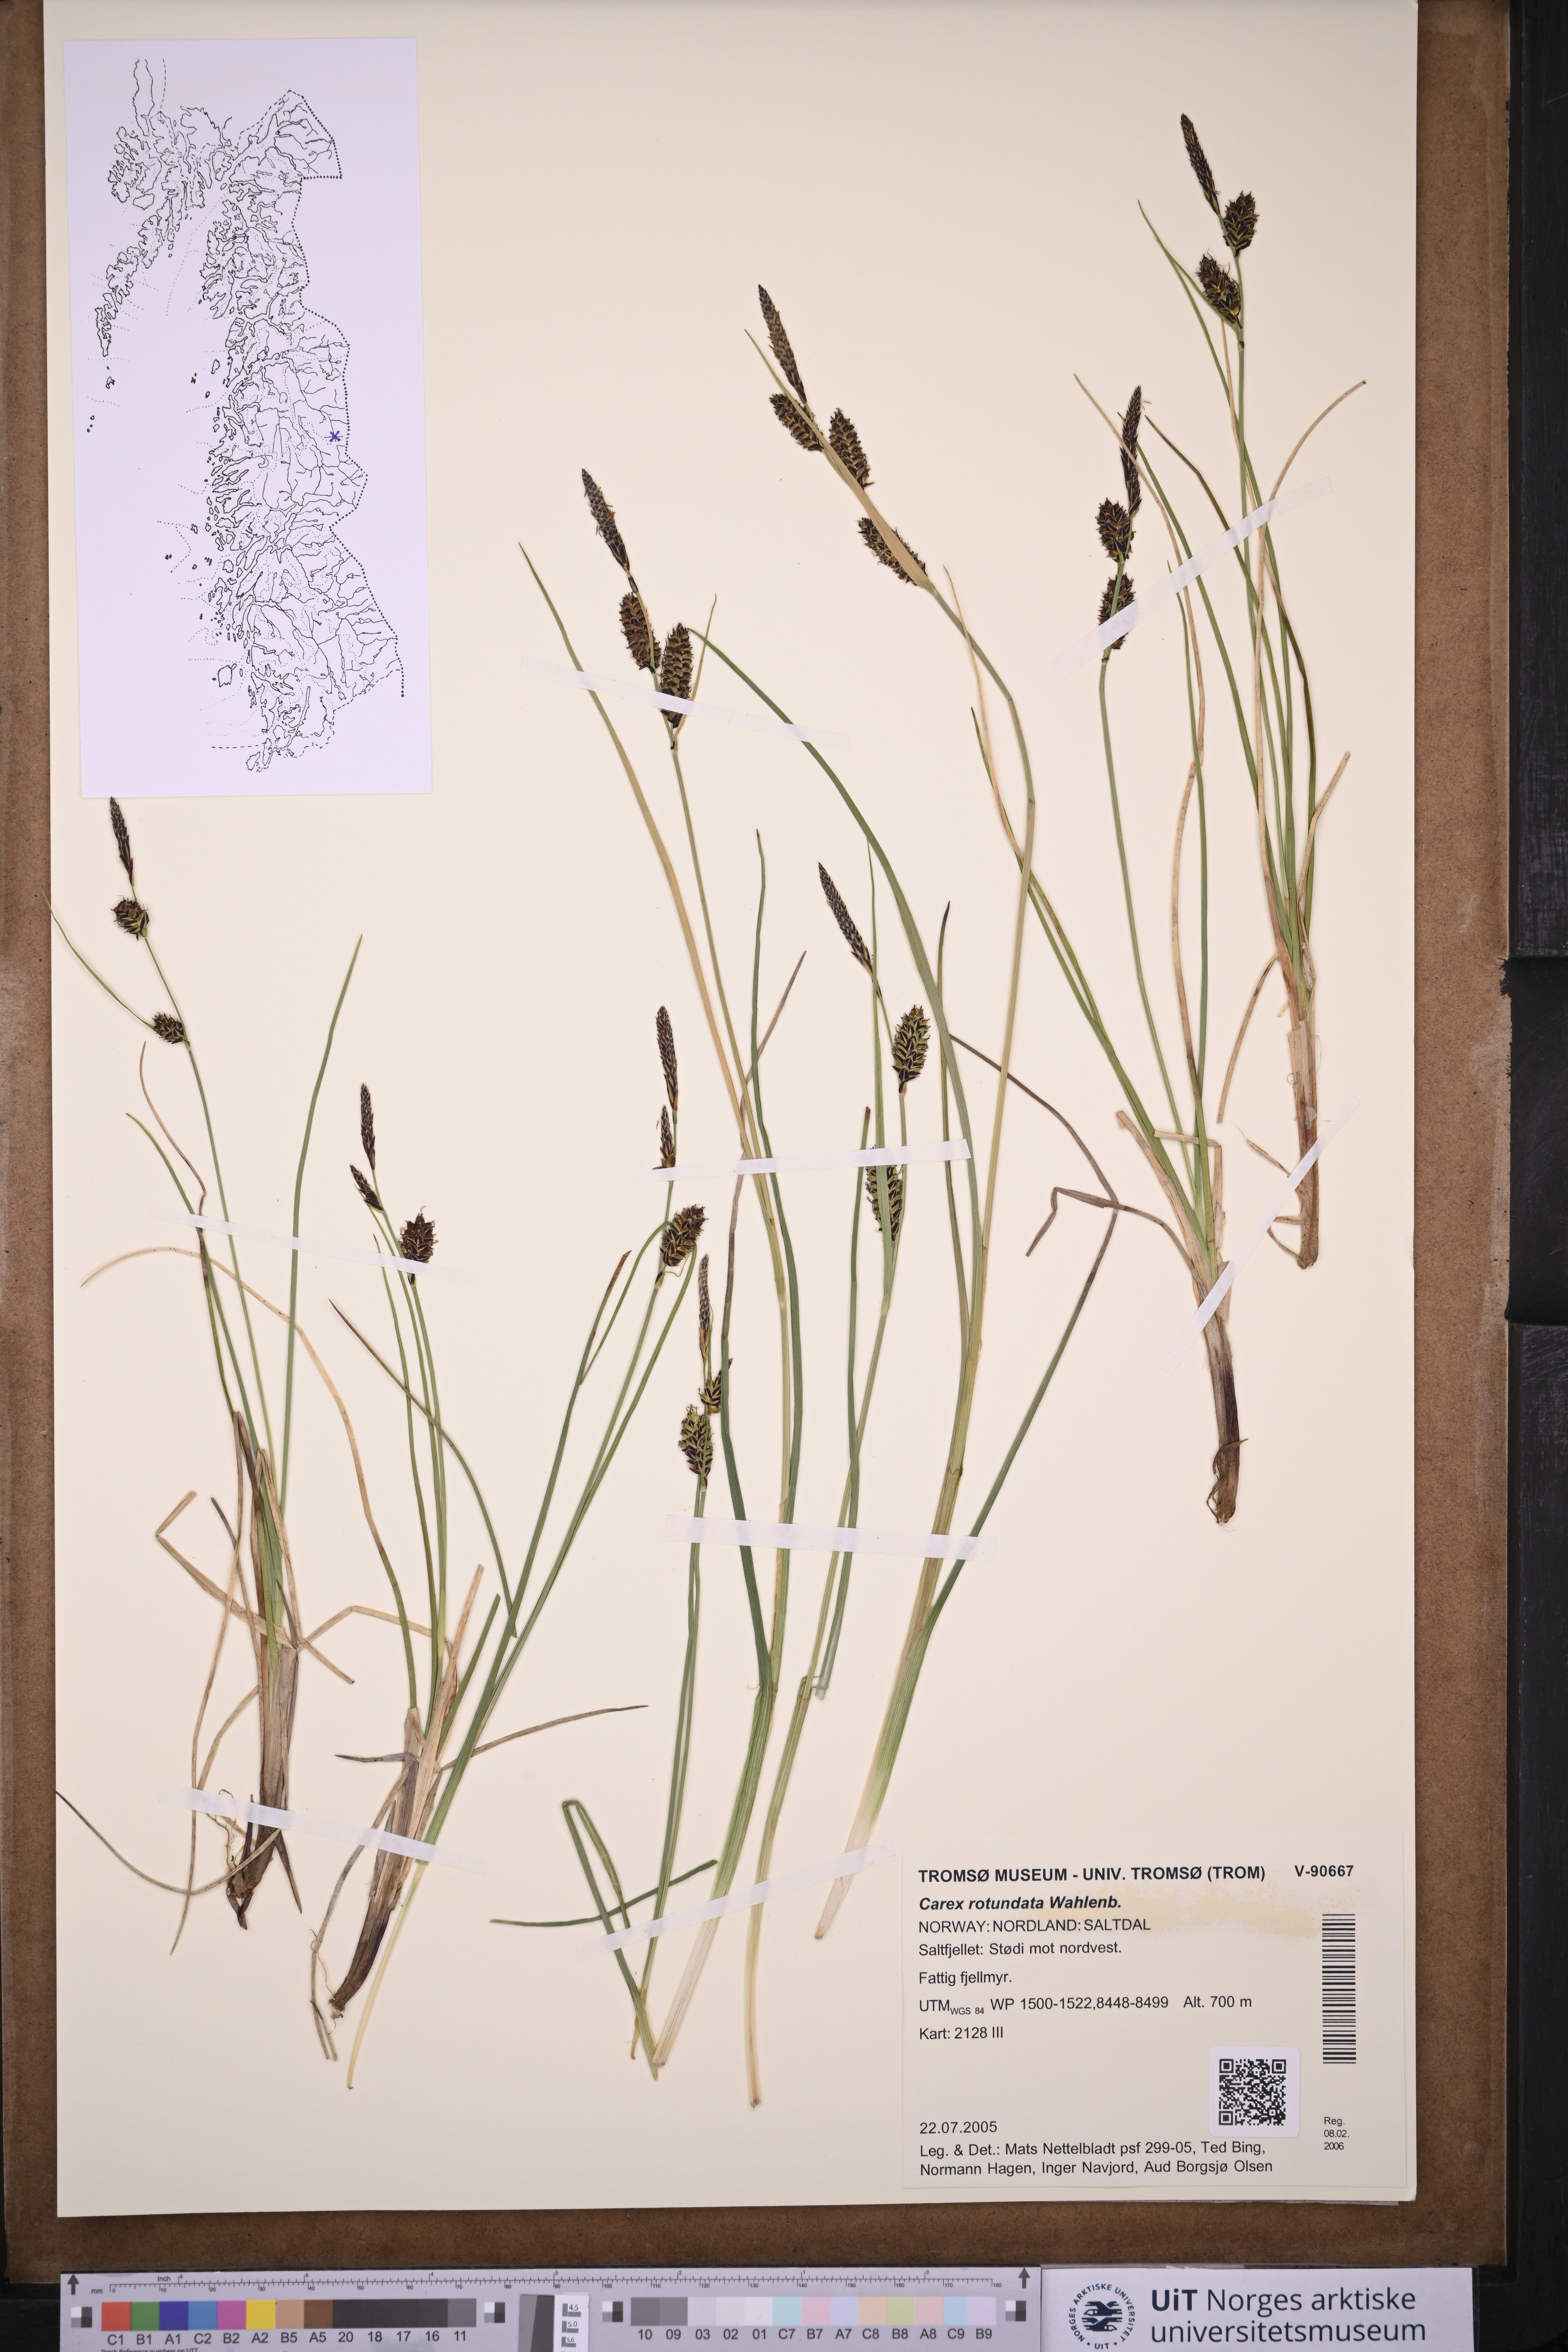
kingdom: Plantae
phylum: Tracheophyta
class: Liliopsida
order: Poales
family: Cyperaceae
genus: Carex
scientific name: Carex rotundata
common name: Round-fruited sedge
